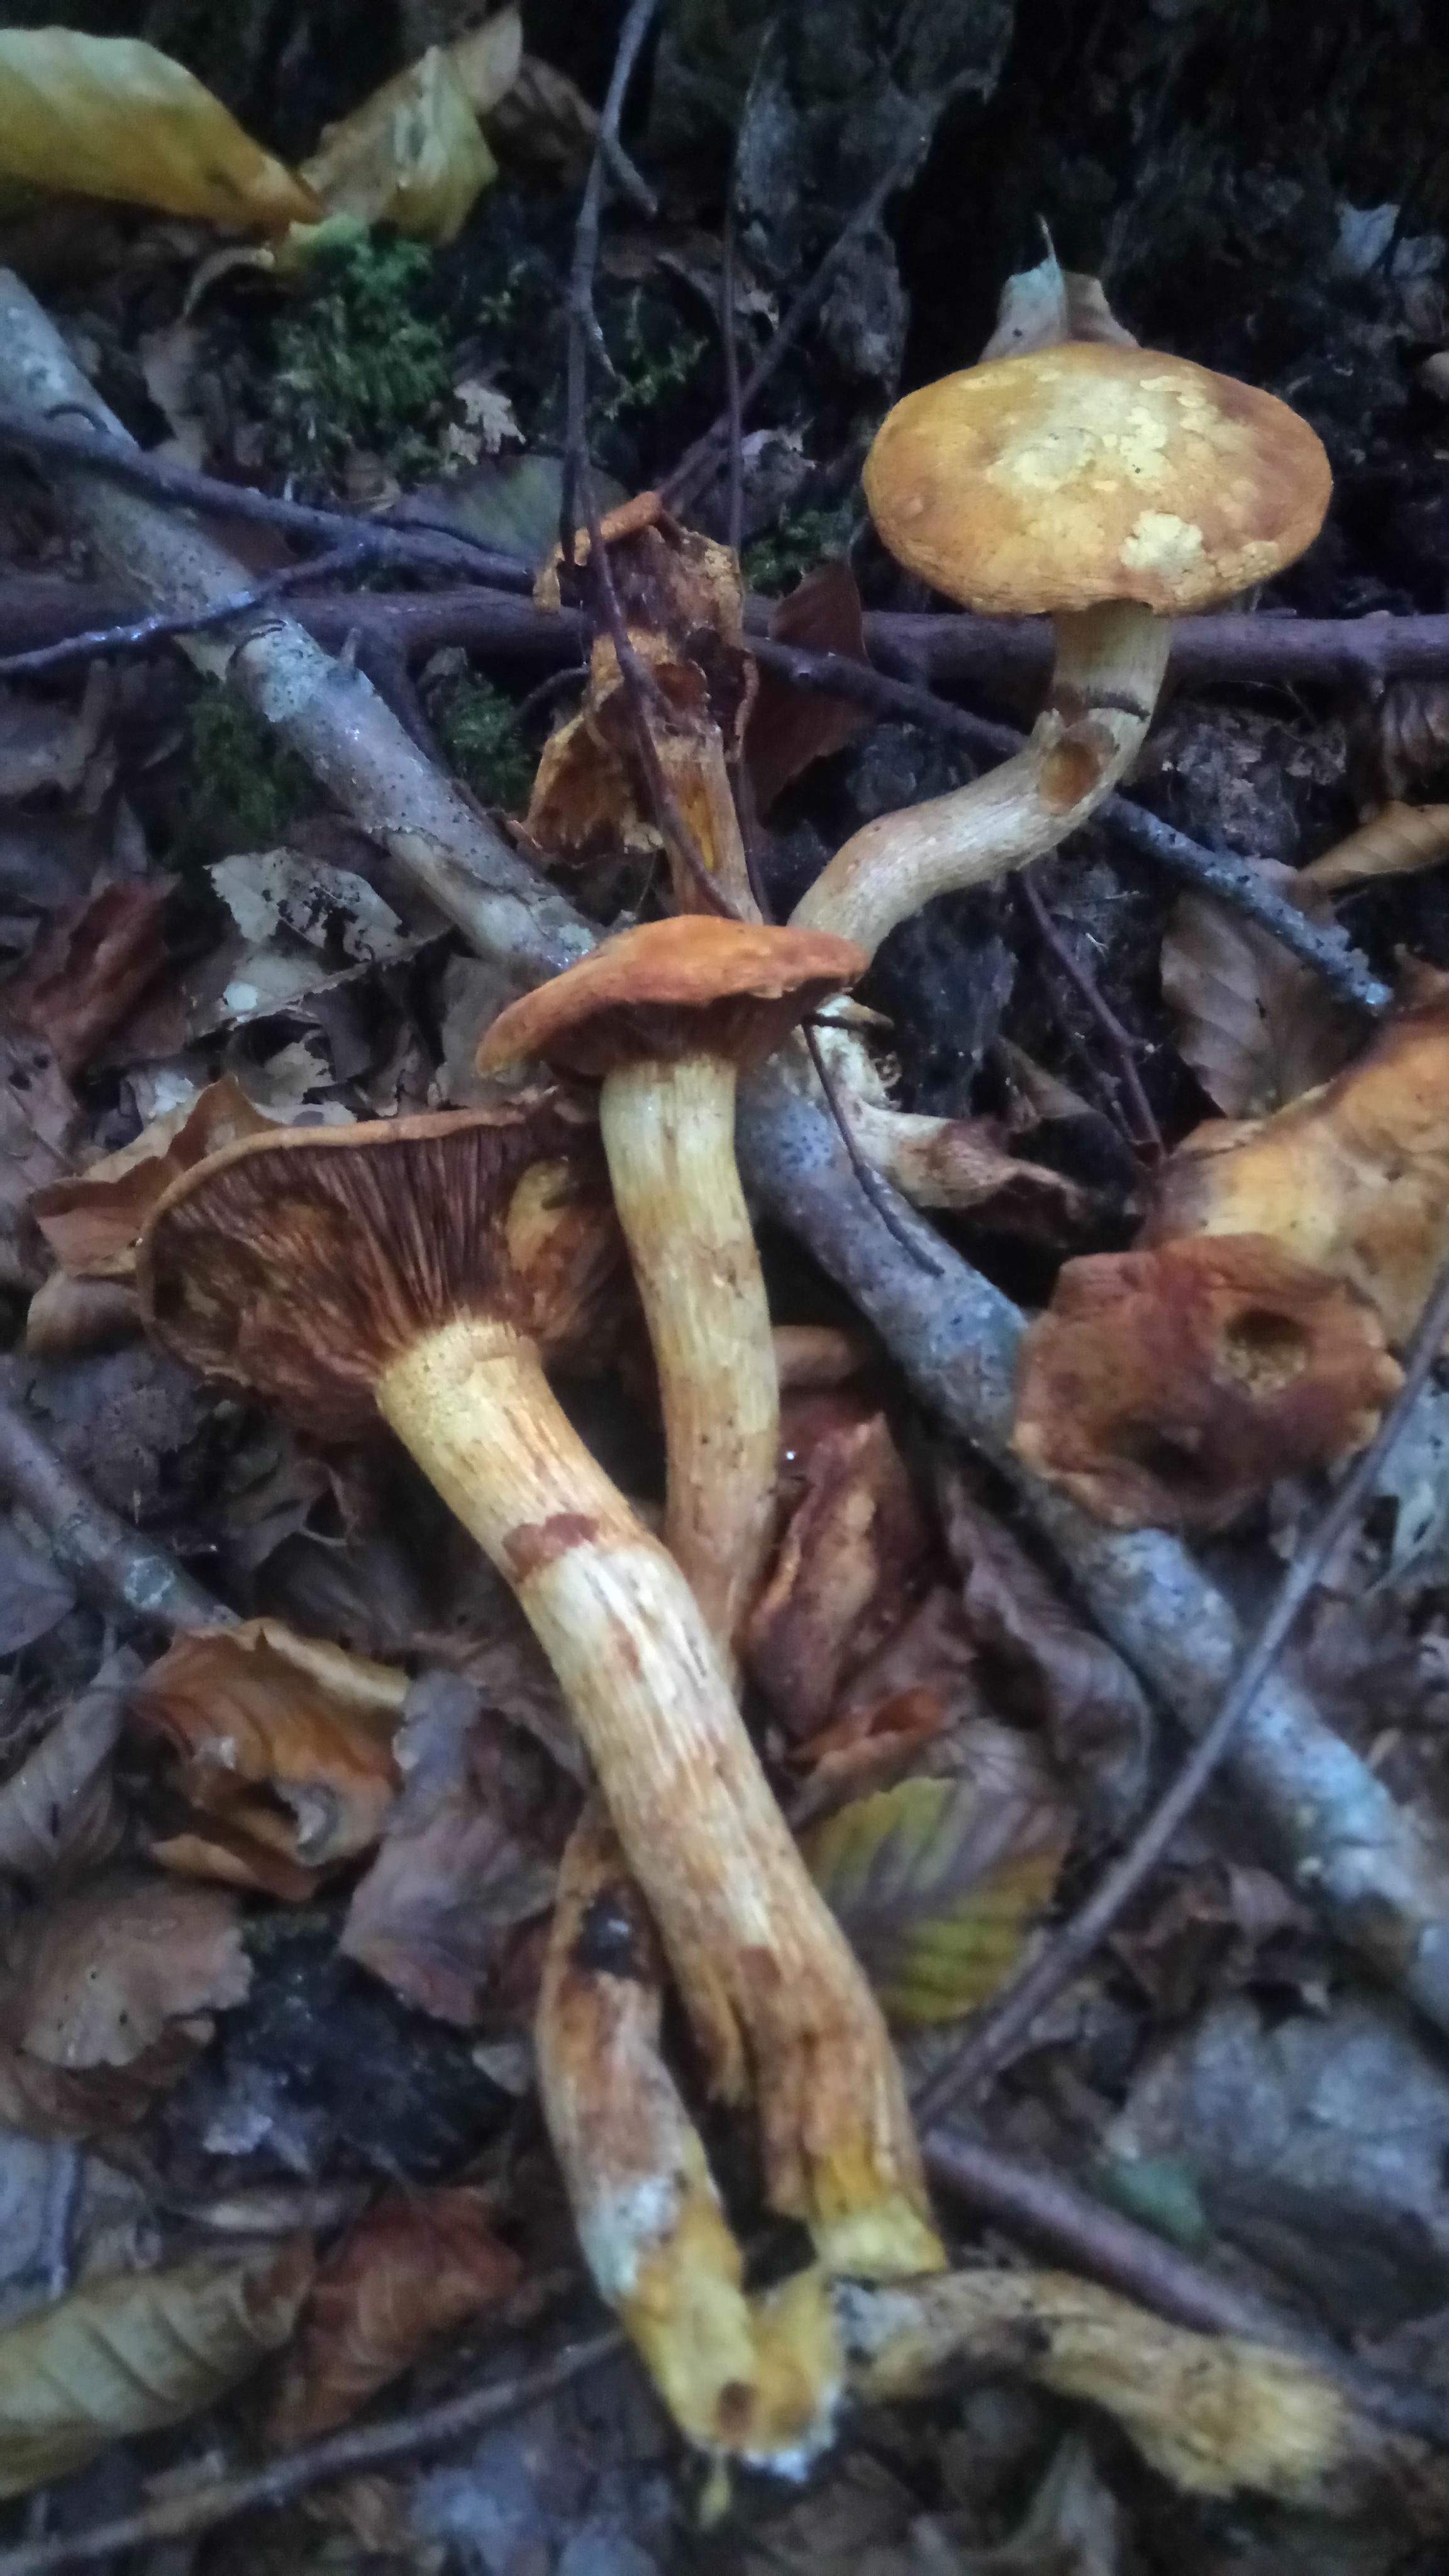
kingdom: Fungi
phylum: Basidiomycota
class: Agaricomycetes
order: Agaricales
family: Hymenogastraceae
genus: Gymnopilus
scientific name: Gymnopilus spectabilis
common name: fibret flammehat
